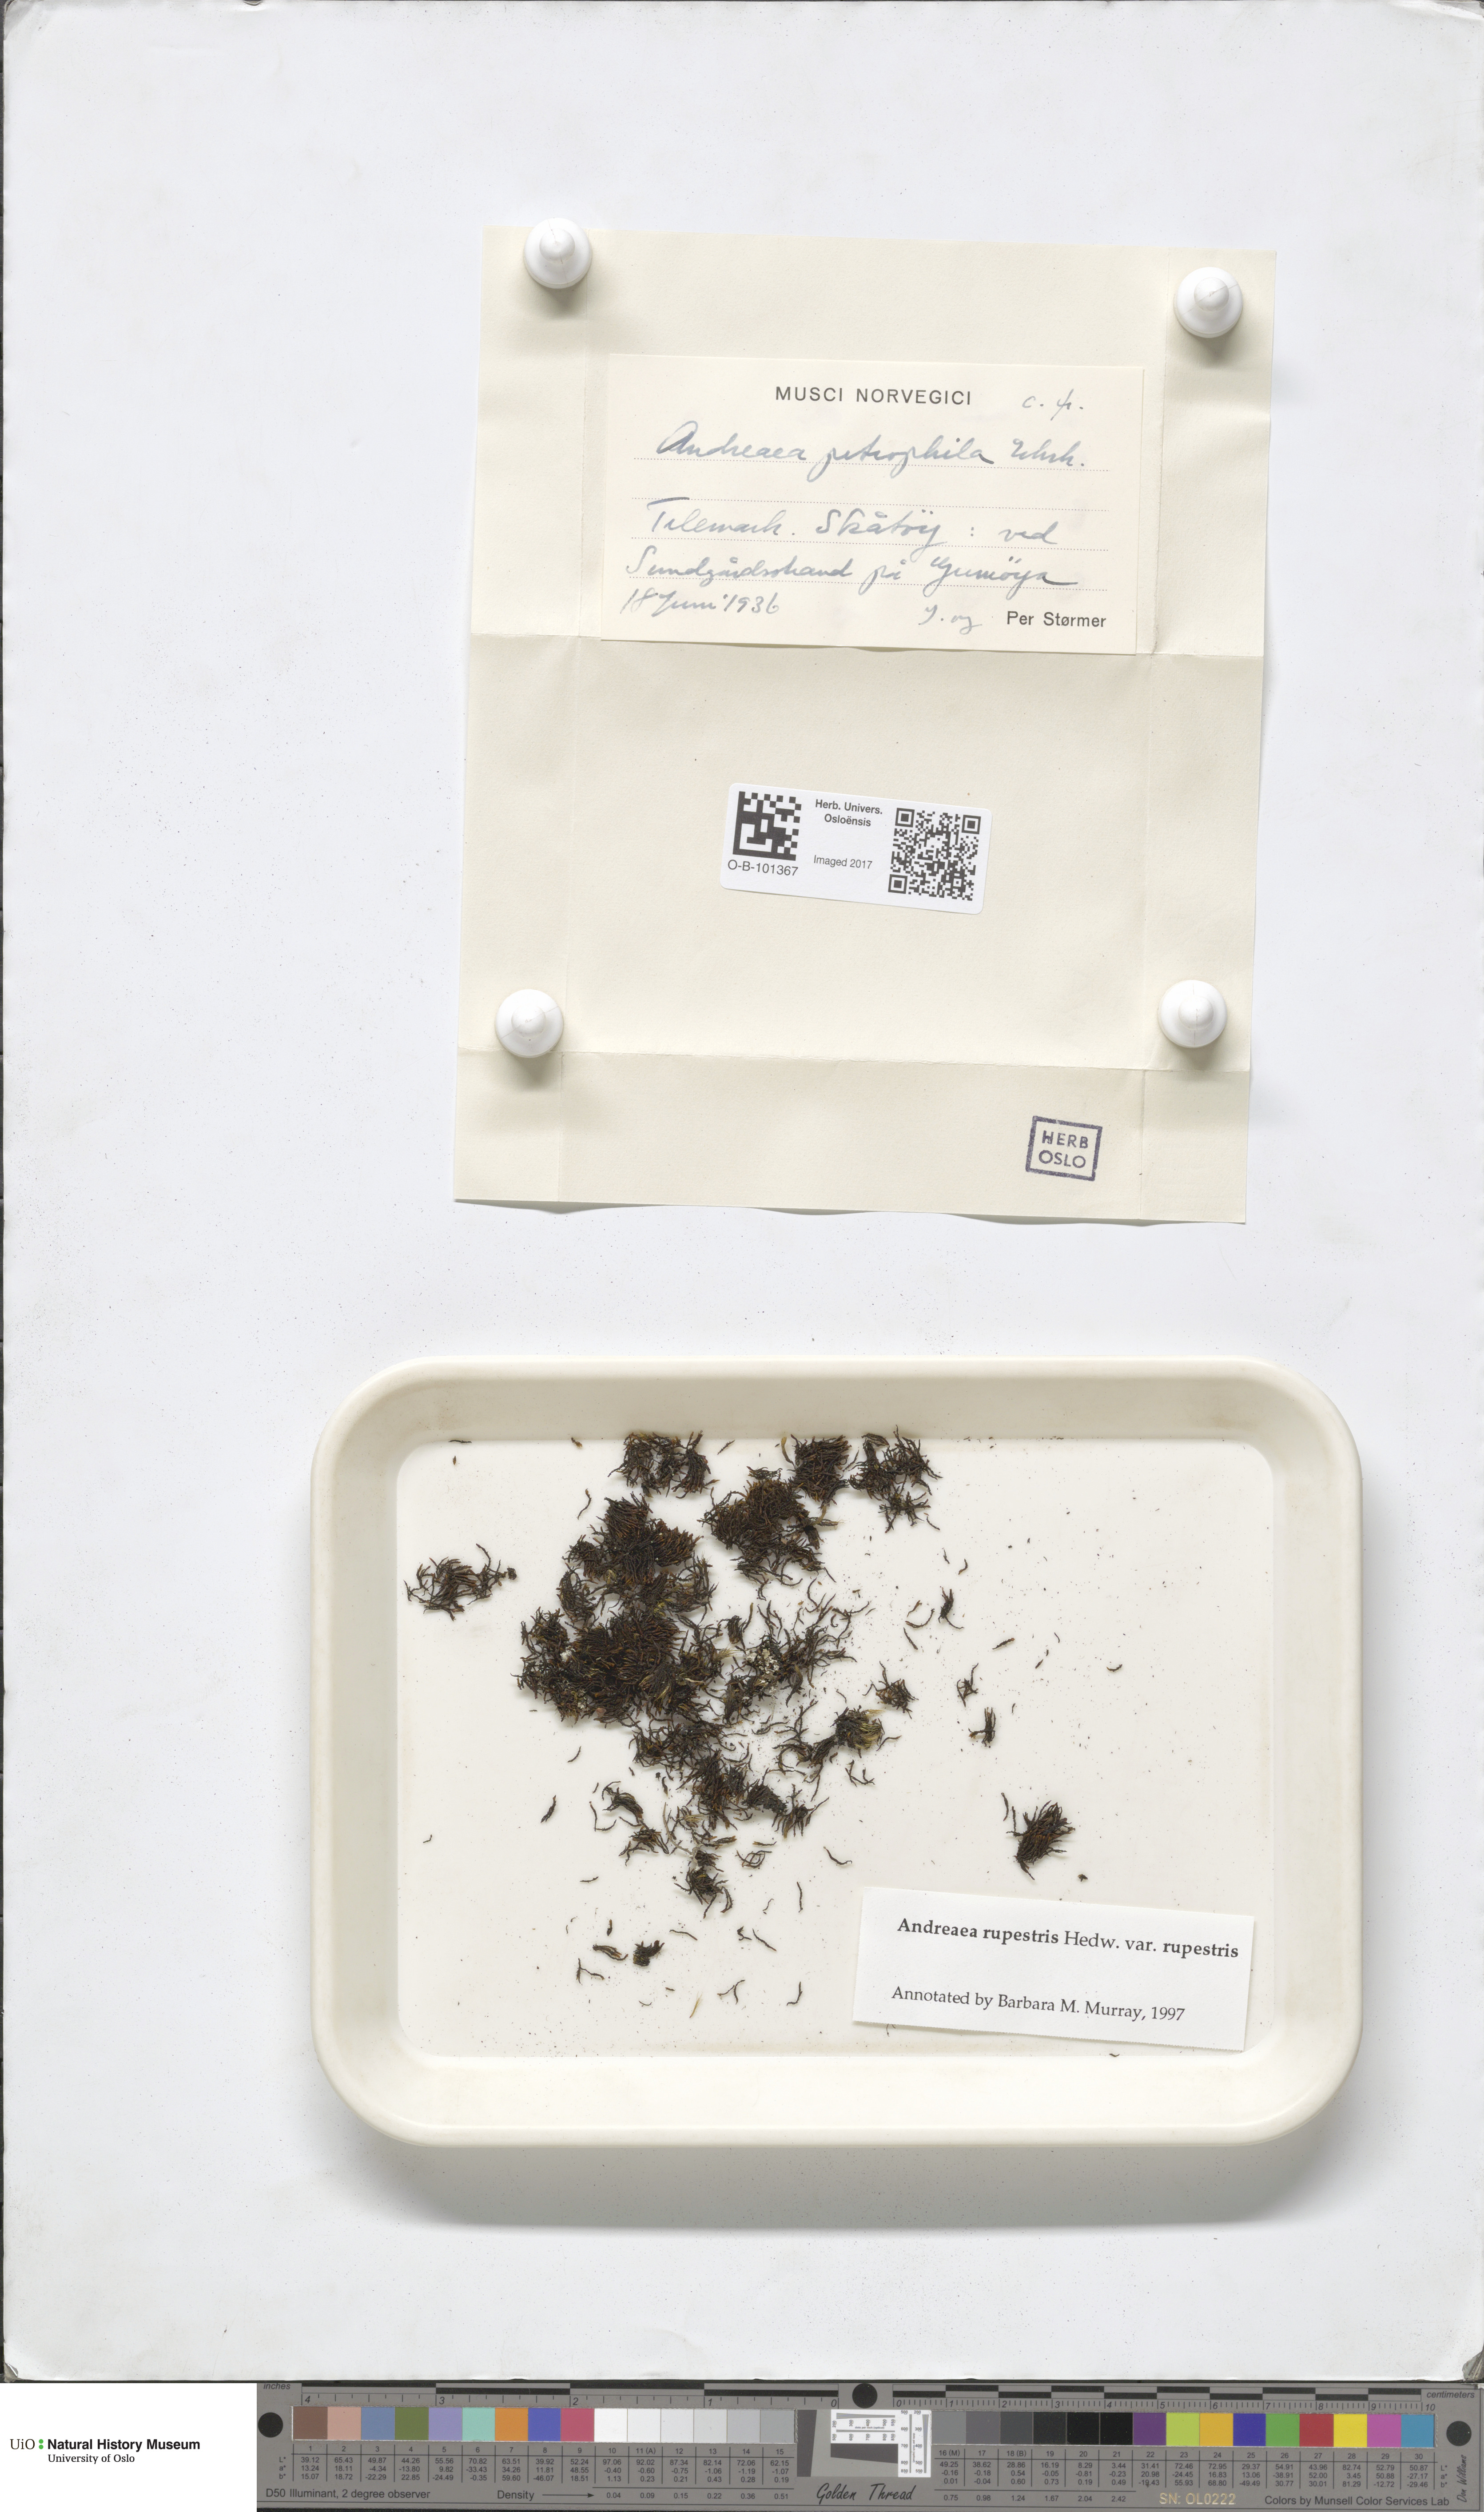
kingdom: Plantae
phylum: Bryophyta
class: Andreaeopsida
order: Andreaeales
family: Andreaeaceae
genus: Andreaea
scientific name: Andreaea rupestris
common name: Black rock moss
